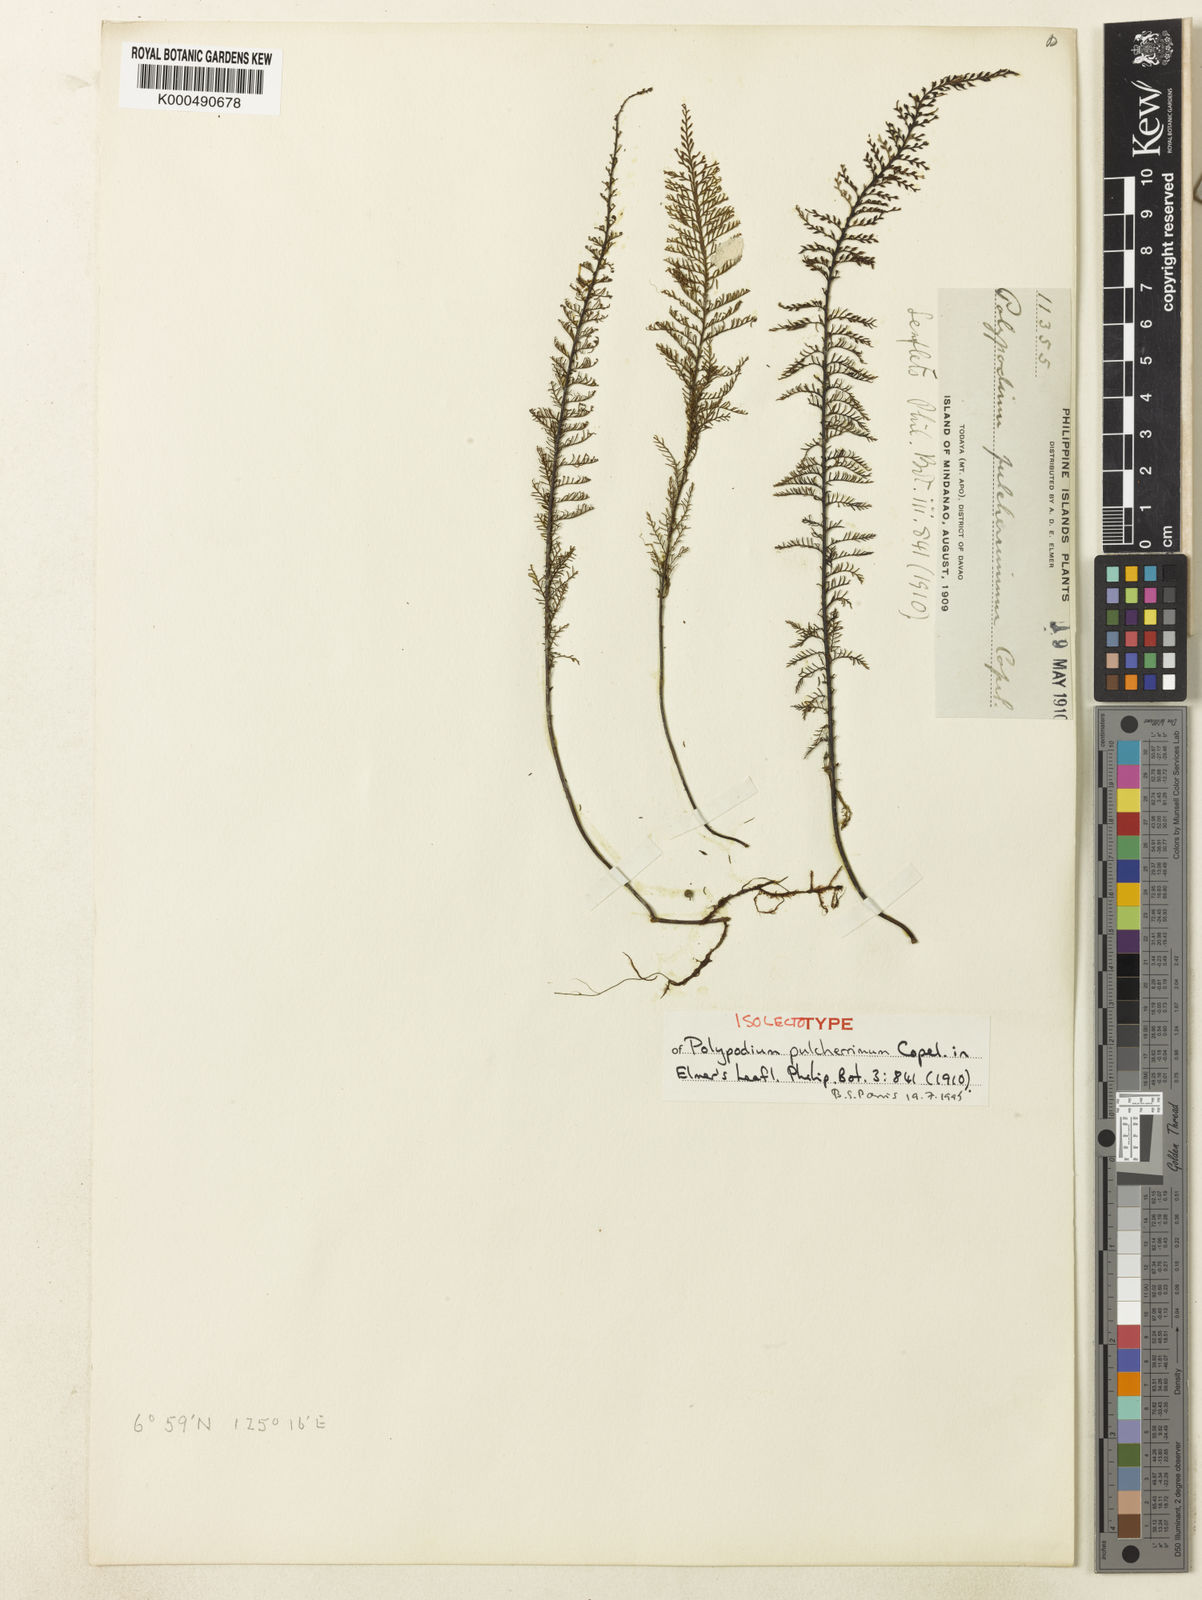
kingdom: Plantae
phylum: Tracheophyta
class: Polypodiopsida
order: Polypodiales
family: Polypodiaceae
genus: Oreogrammitis
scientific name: Oreogrammitis taxodioides
